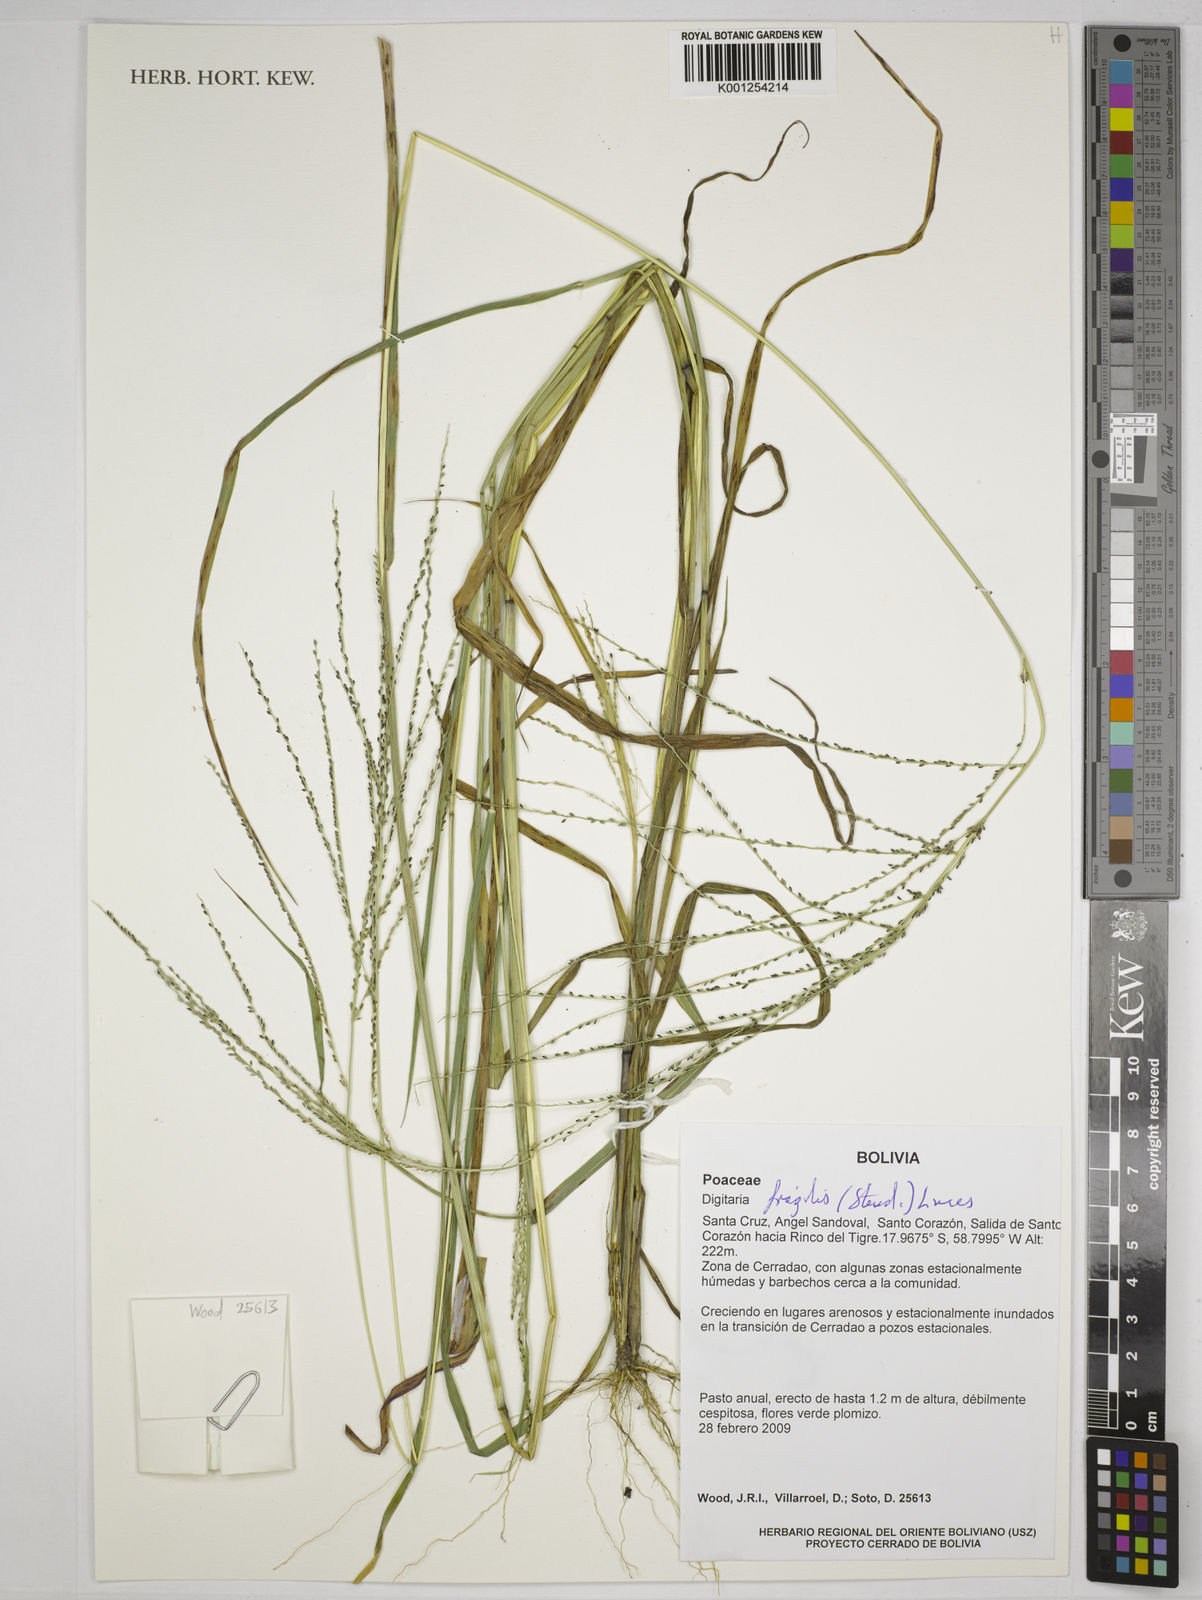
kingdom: Plantae
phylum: Tracheophyta
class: Liliopsida
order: Poales
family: Poaceae
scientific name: Poaceae
